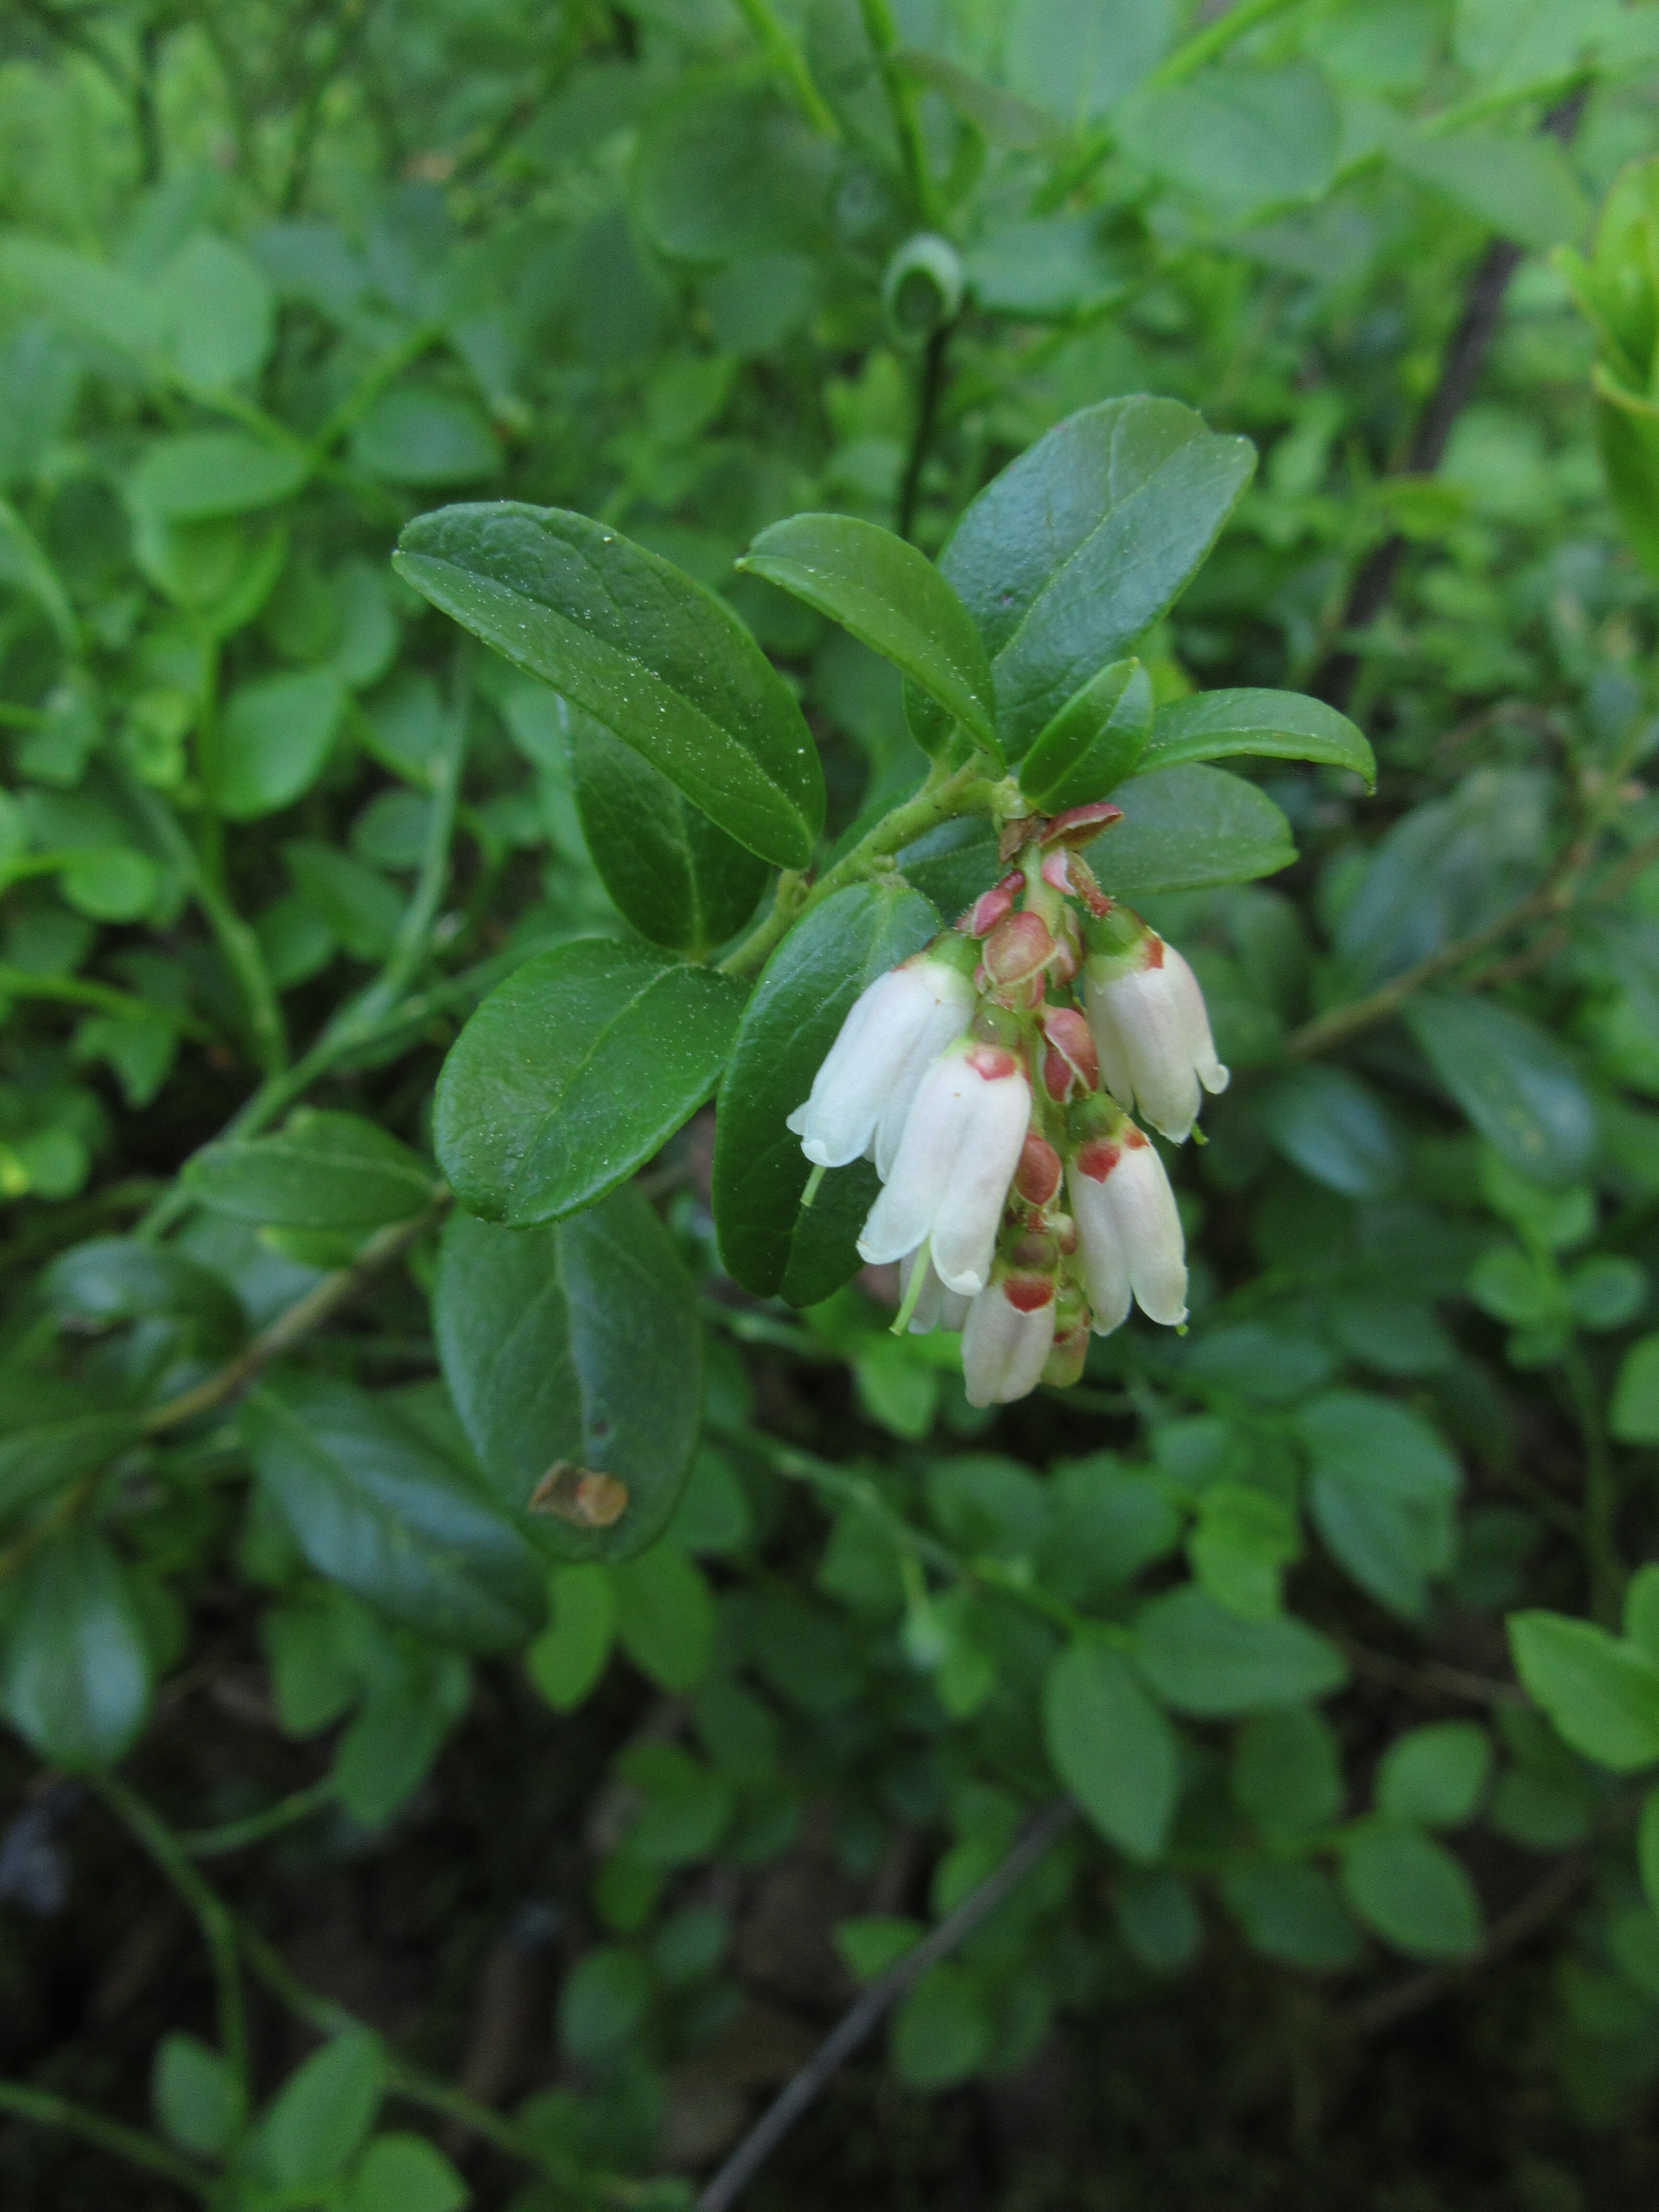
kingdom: Plantae
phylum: Tracheophyta
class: Magnoliopsida
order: Ericales
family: Ericaceae
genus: Vaccinium
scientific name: Vaccinium vitis-idaea
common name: Cowberry
